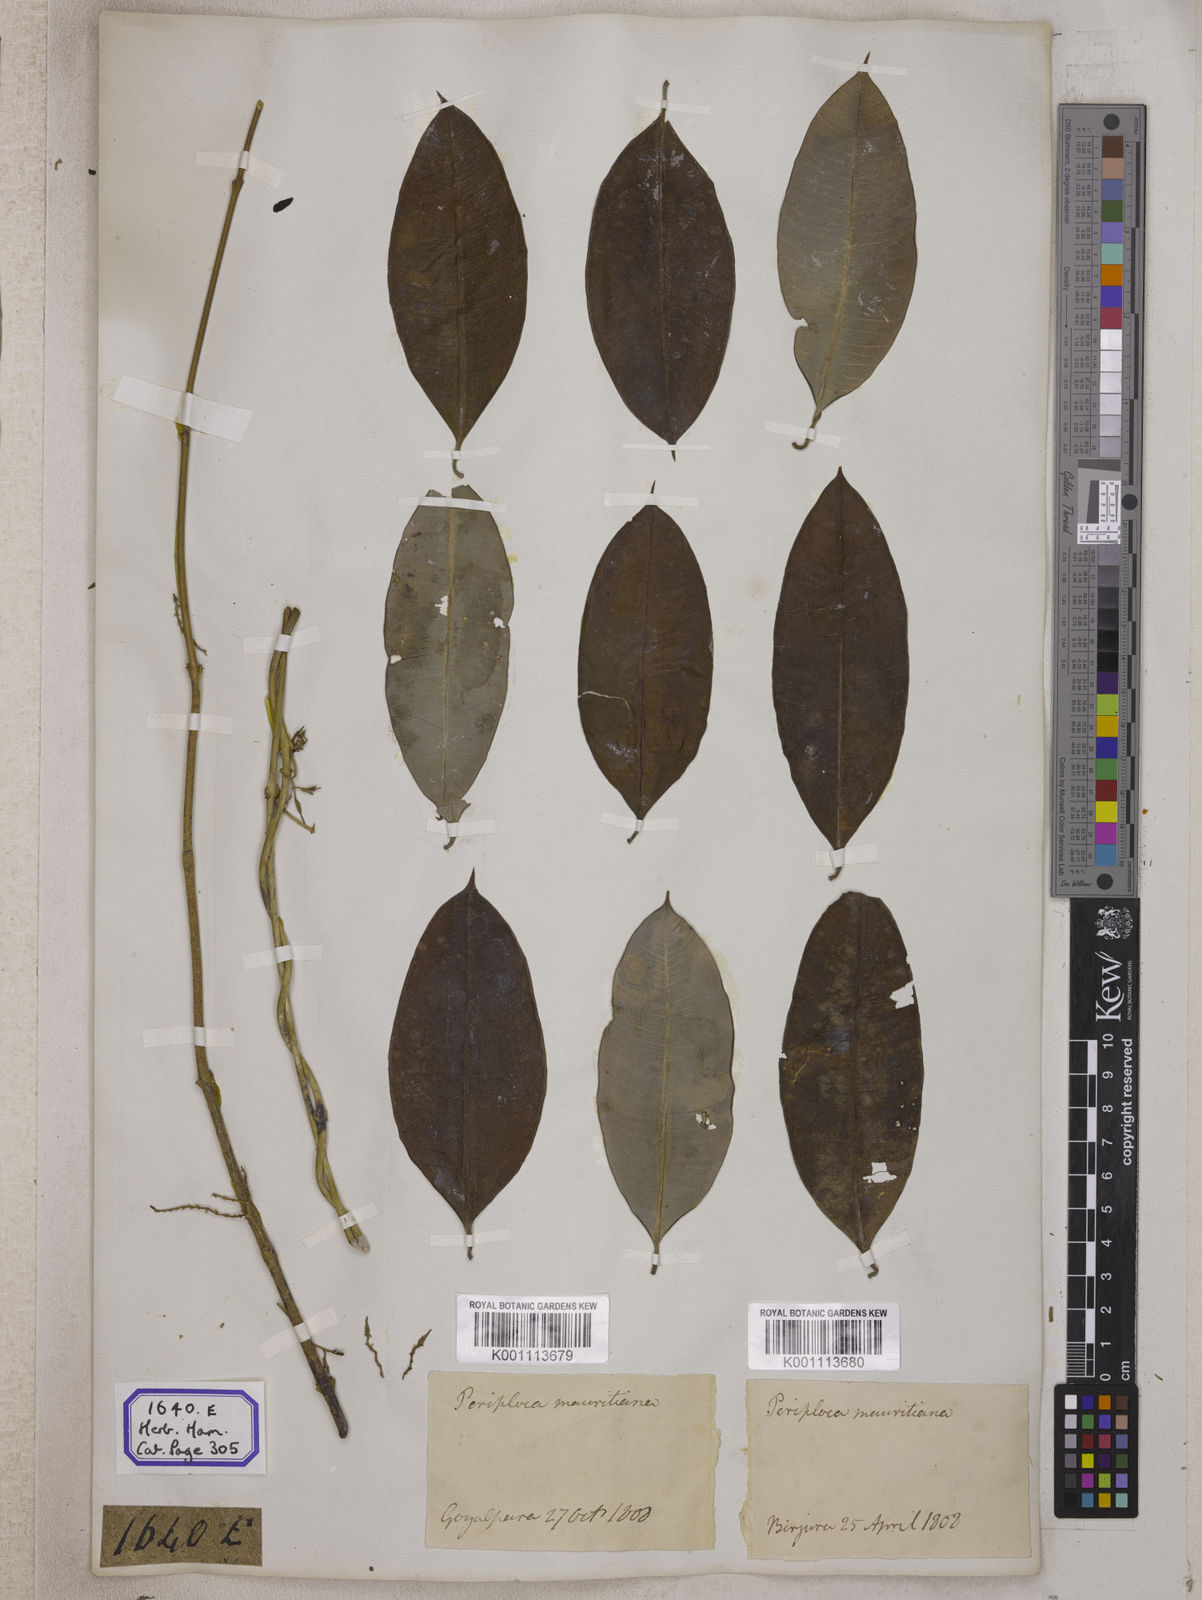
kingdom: Plantae
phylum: Tracheophyta
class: Magnoliopsida
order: Gentianales
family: Apocynaceae
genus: Cryptolepis
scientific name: Cryptolepis
